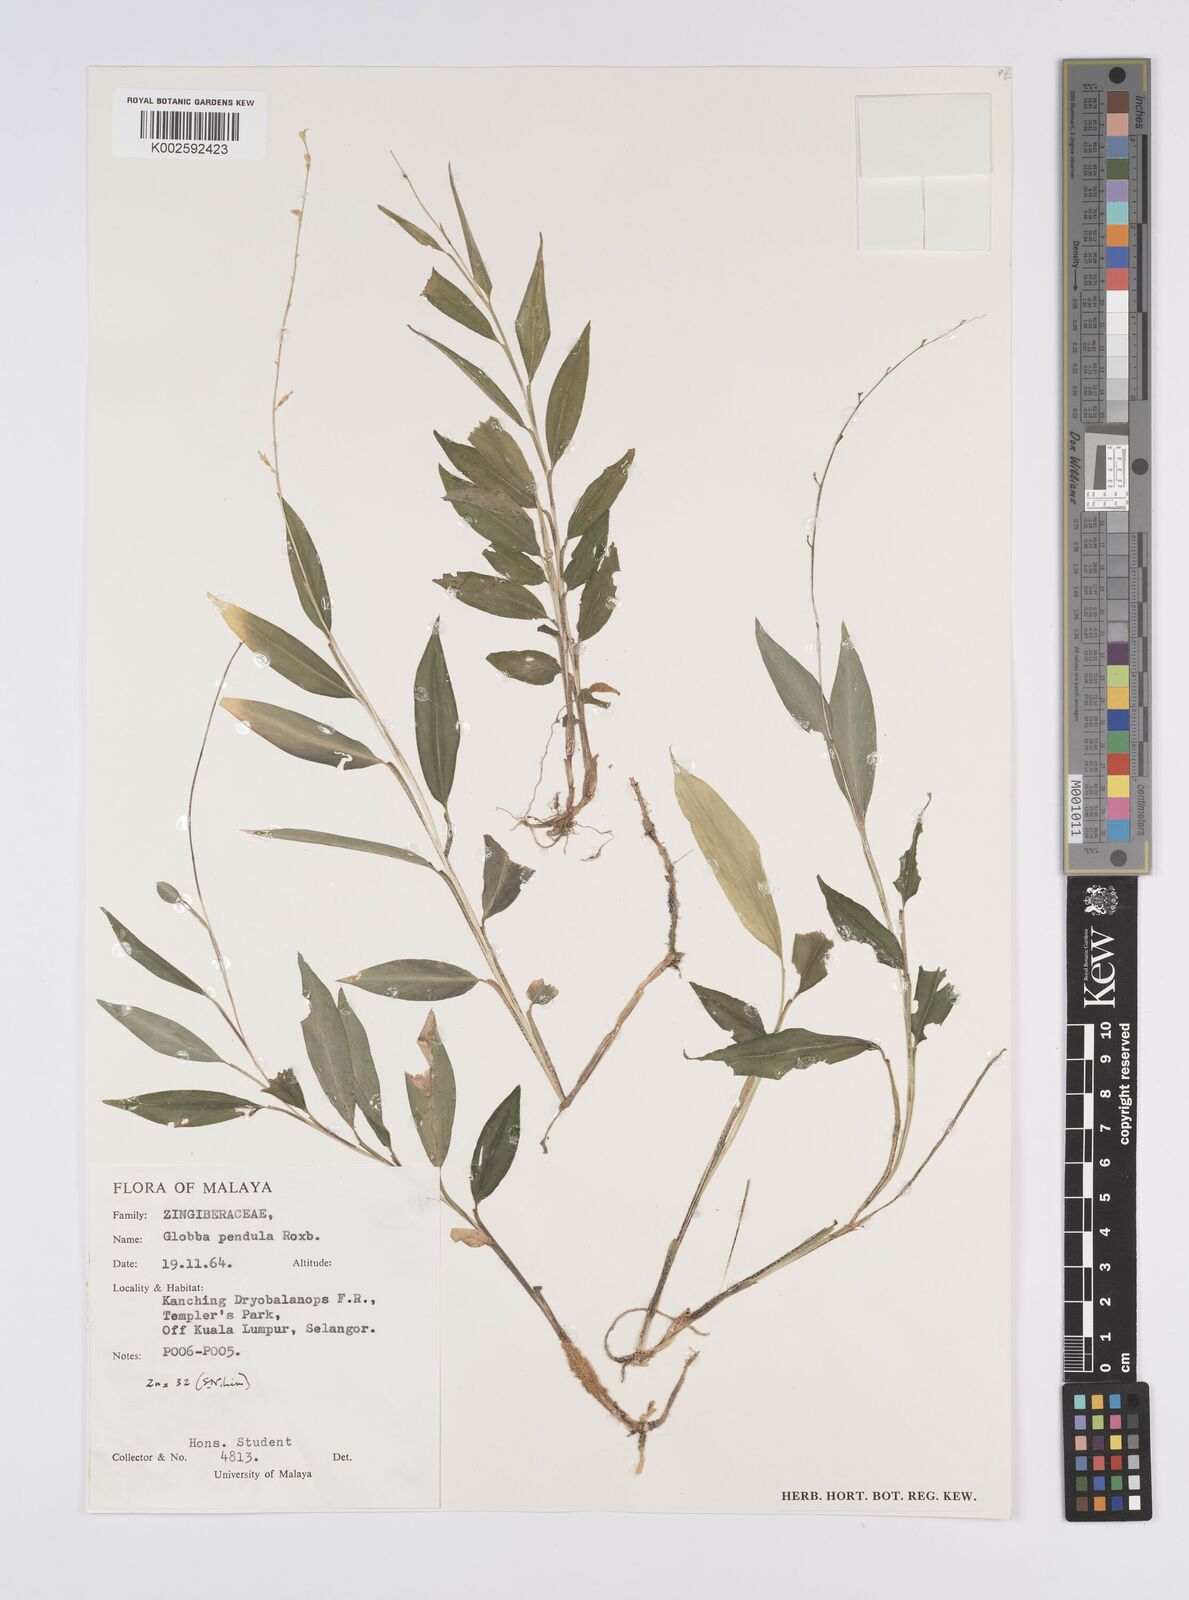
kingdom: Plantae
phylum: Tracheophyta
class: Liliopsida
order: Zingiberales
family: Zingiberaceae
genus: Globba
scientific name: Globba pendula
